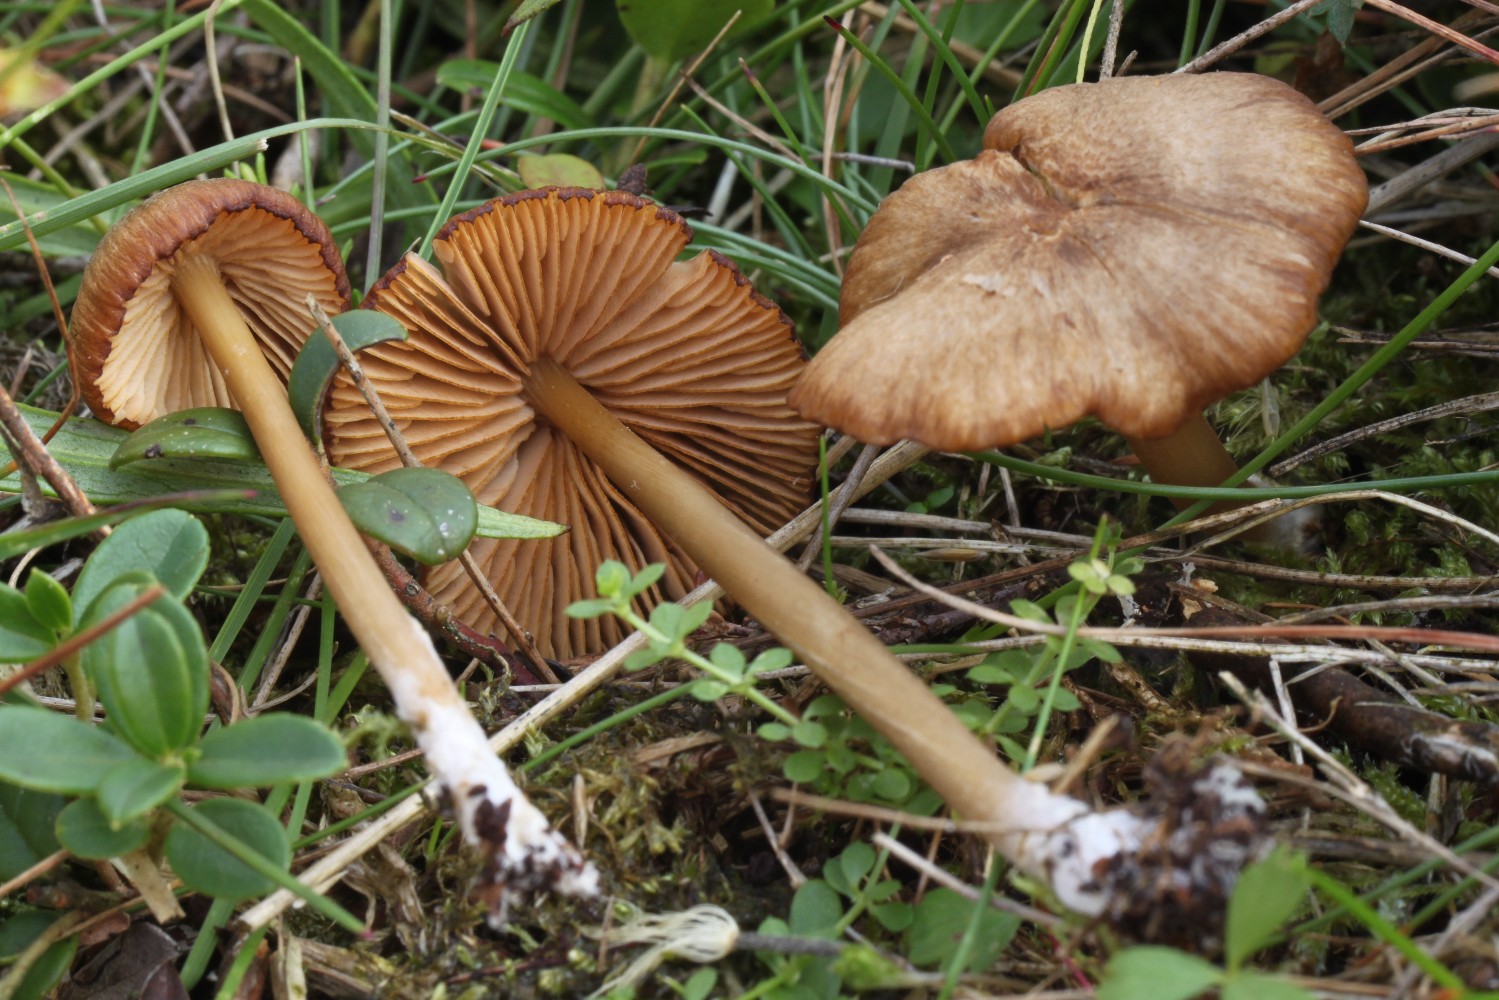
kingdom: Fungi
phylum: Basidiomycota
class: Agaricomycetes
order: Agaricales
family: Entolomataceae
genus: Entoloma
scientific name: Entoloma formosum
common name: brungul rødblad
